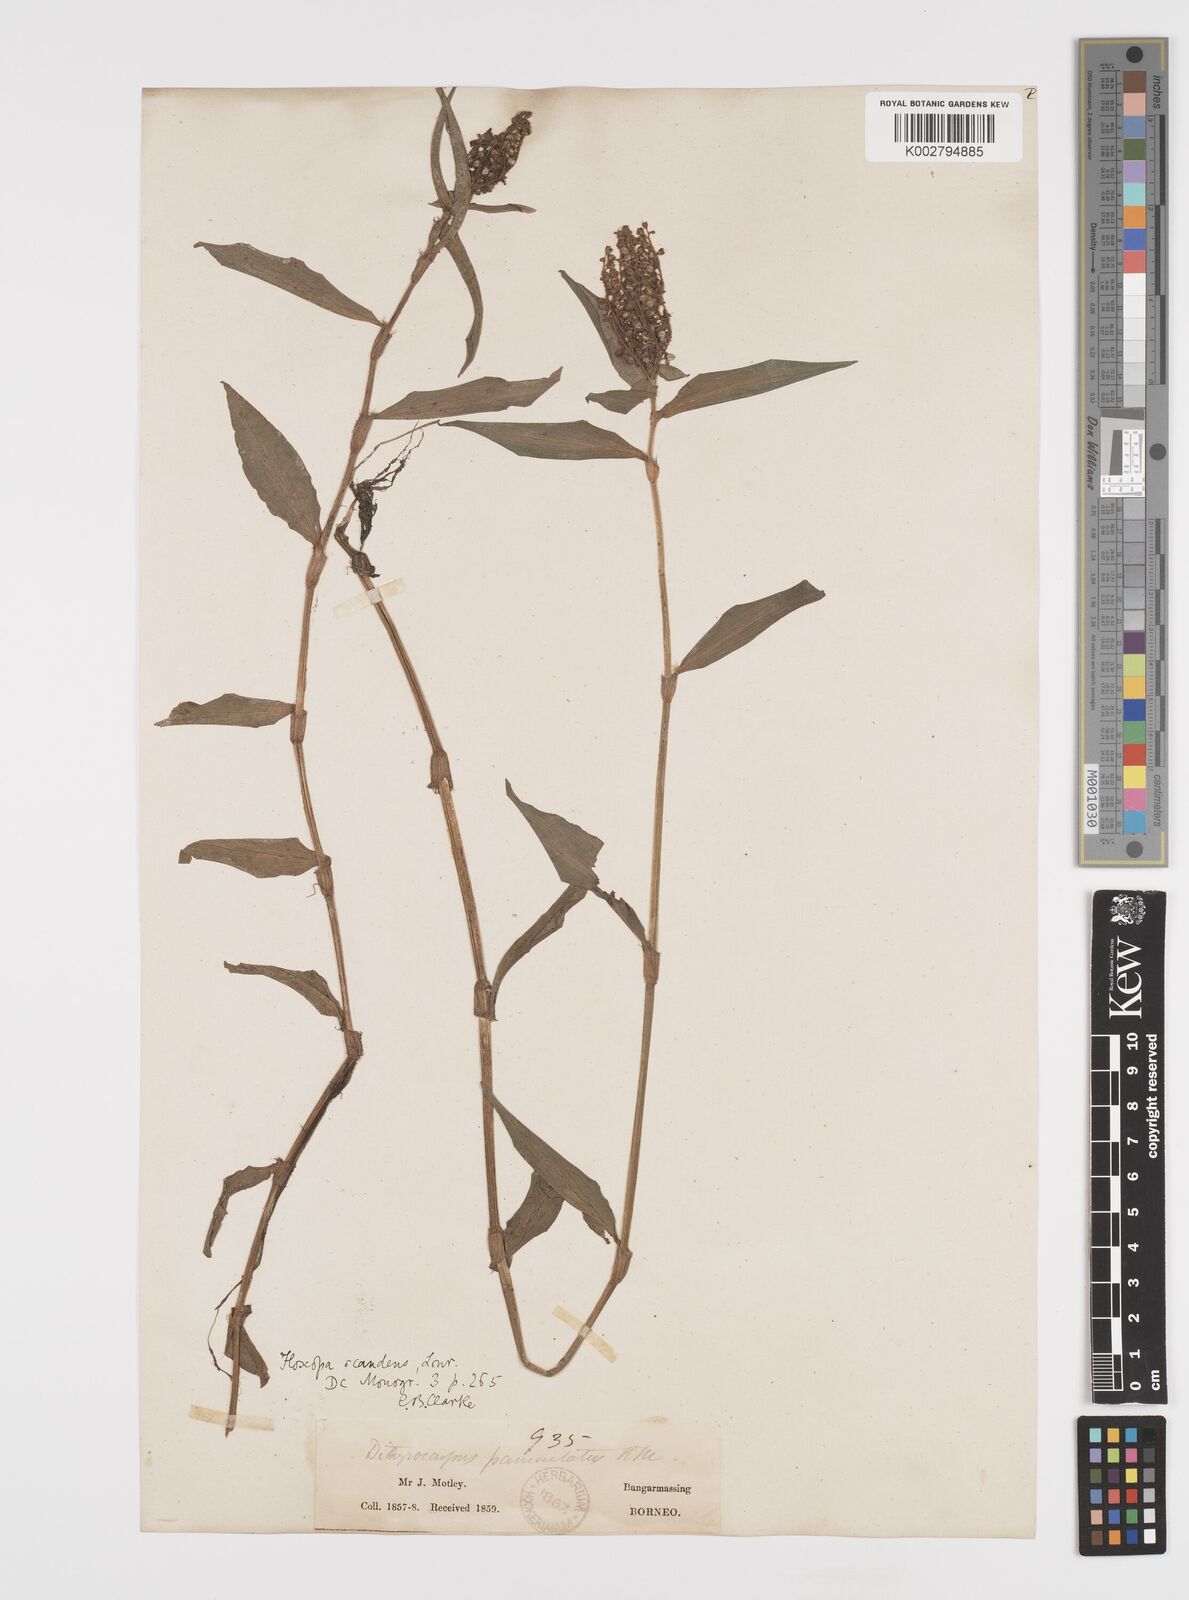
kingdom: Plantae
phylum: Tracheophyta
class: Liliopsida
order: Commelinales
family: Commelinaceae
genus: Floscopa
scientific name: Floscopa scandens
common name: Climbing flower cup
